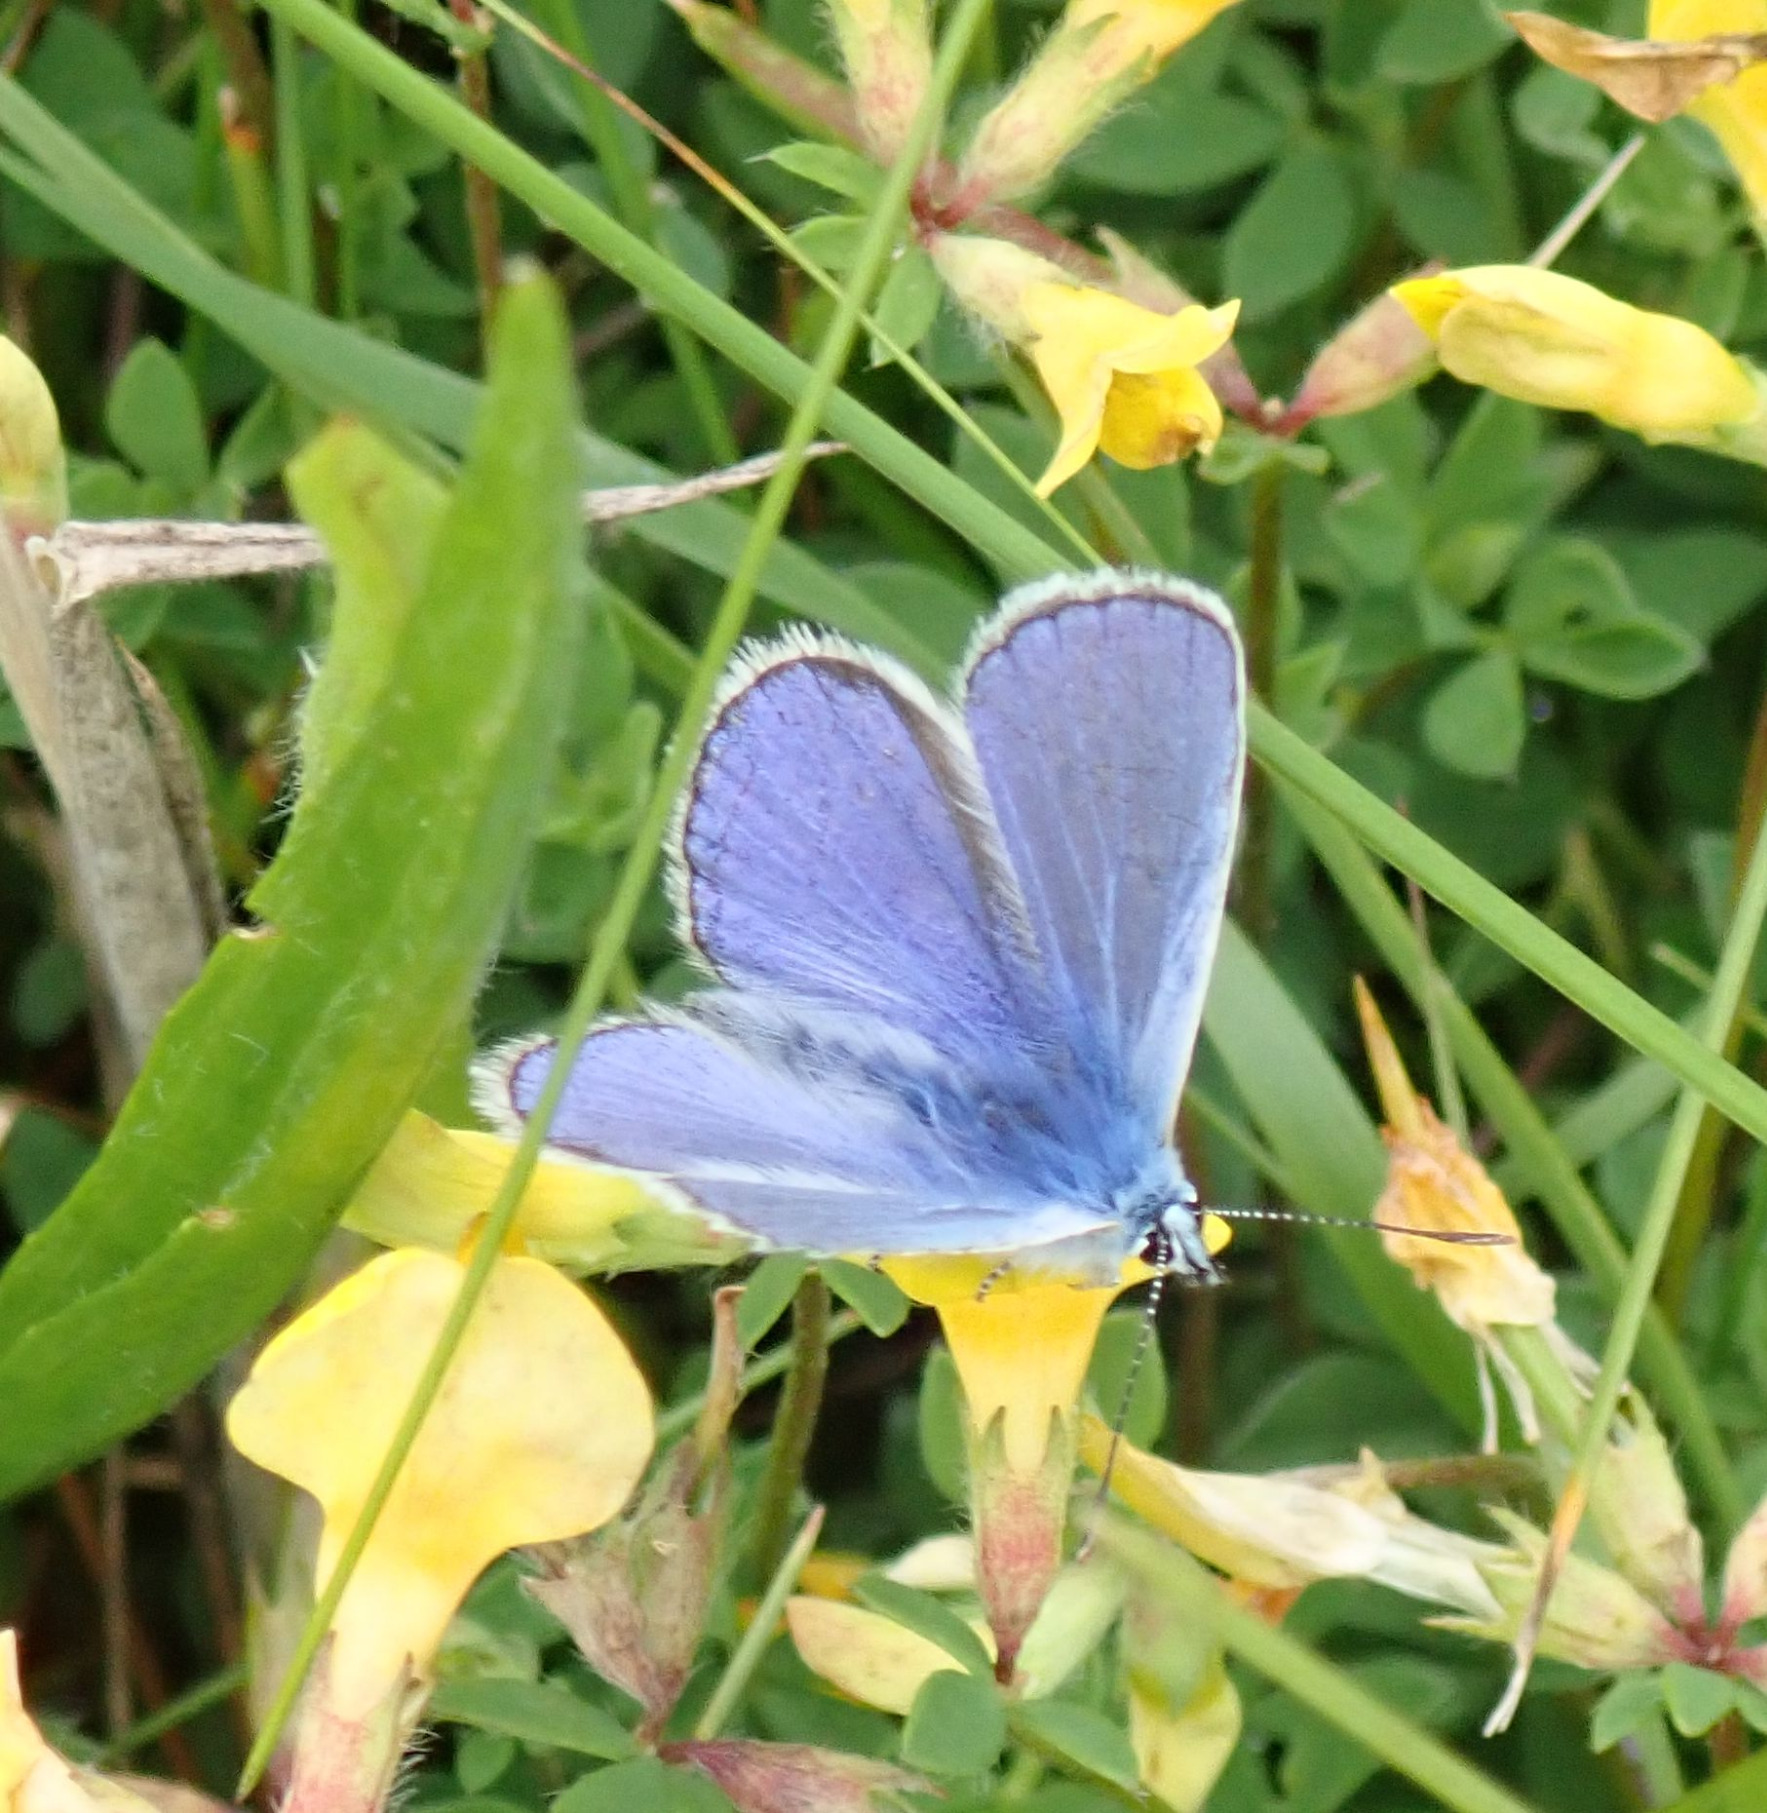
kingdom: Animalia
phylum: Arthropoda
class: Insecta
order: Lepidoptera
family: Lycaenidae
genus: Polyommatus
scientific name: Polyommatus icarus
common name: Almindelig blåfugl
